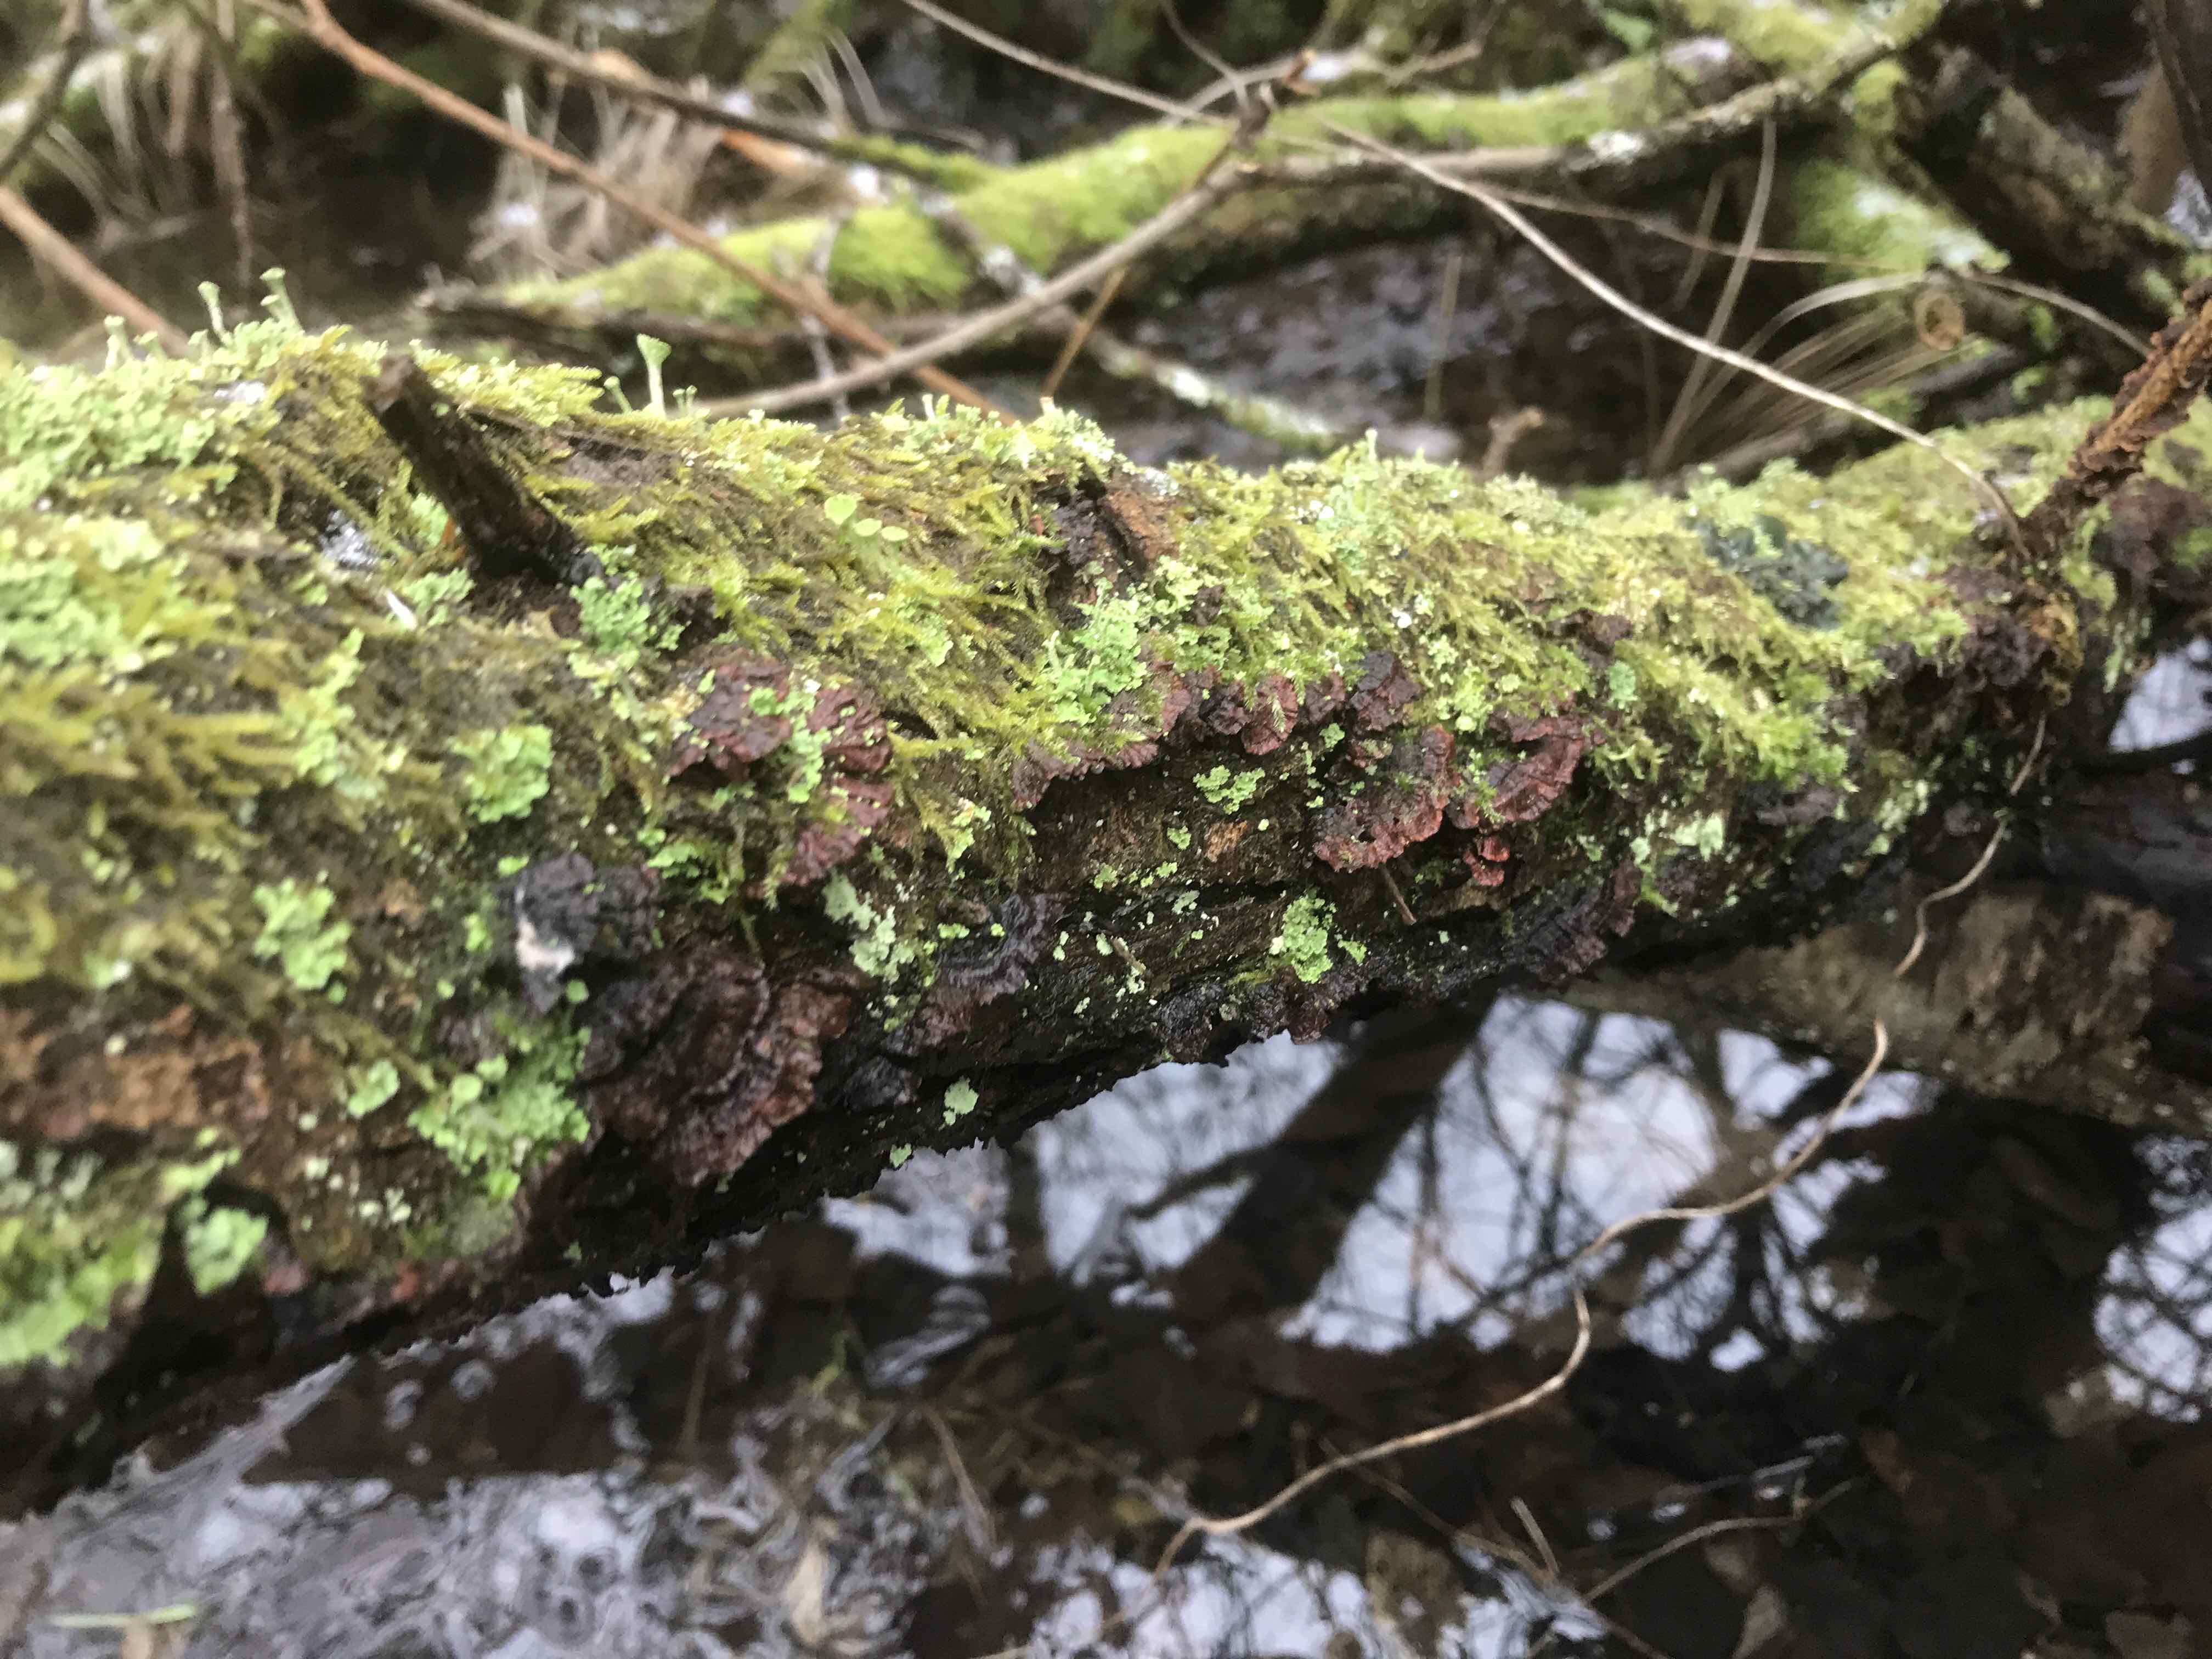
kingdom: Fungi
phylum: Basidiomycota
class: Agaricomycetes
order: Hymenochaetales
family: Hymenochaetaceae
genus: Hydnoporia
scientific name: Hydnoporia tabacina
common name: tobaksbrun ruslædersvamp
